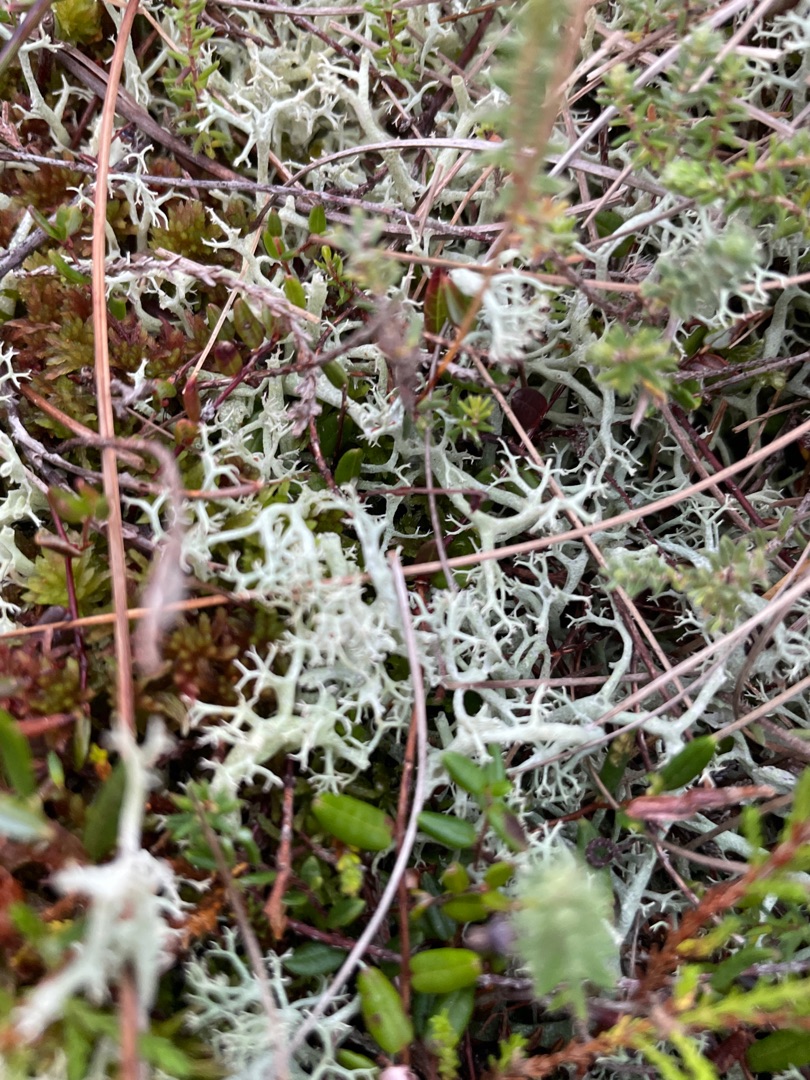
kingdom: Fungi
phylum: Ascomycota
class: Lecanoromycetes
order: Lecanorales
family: Cladoniaceae
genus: Cladonia
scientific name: Cladonia portentosa
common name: Hede-rensdyrlav
